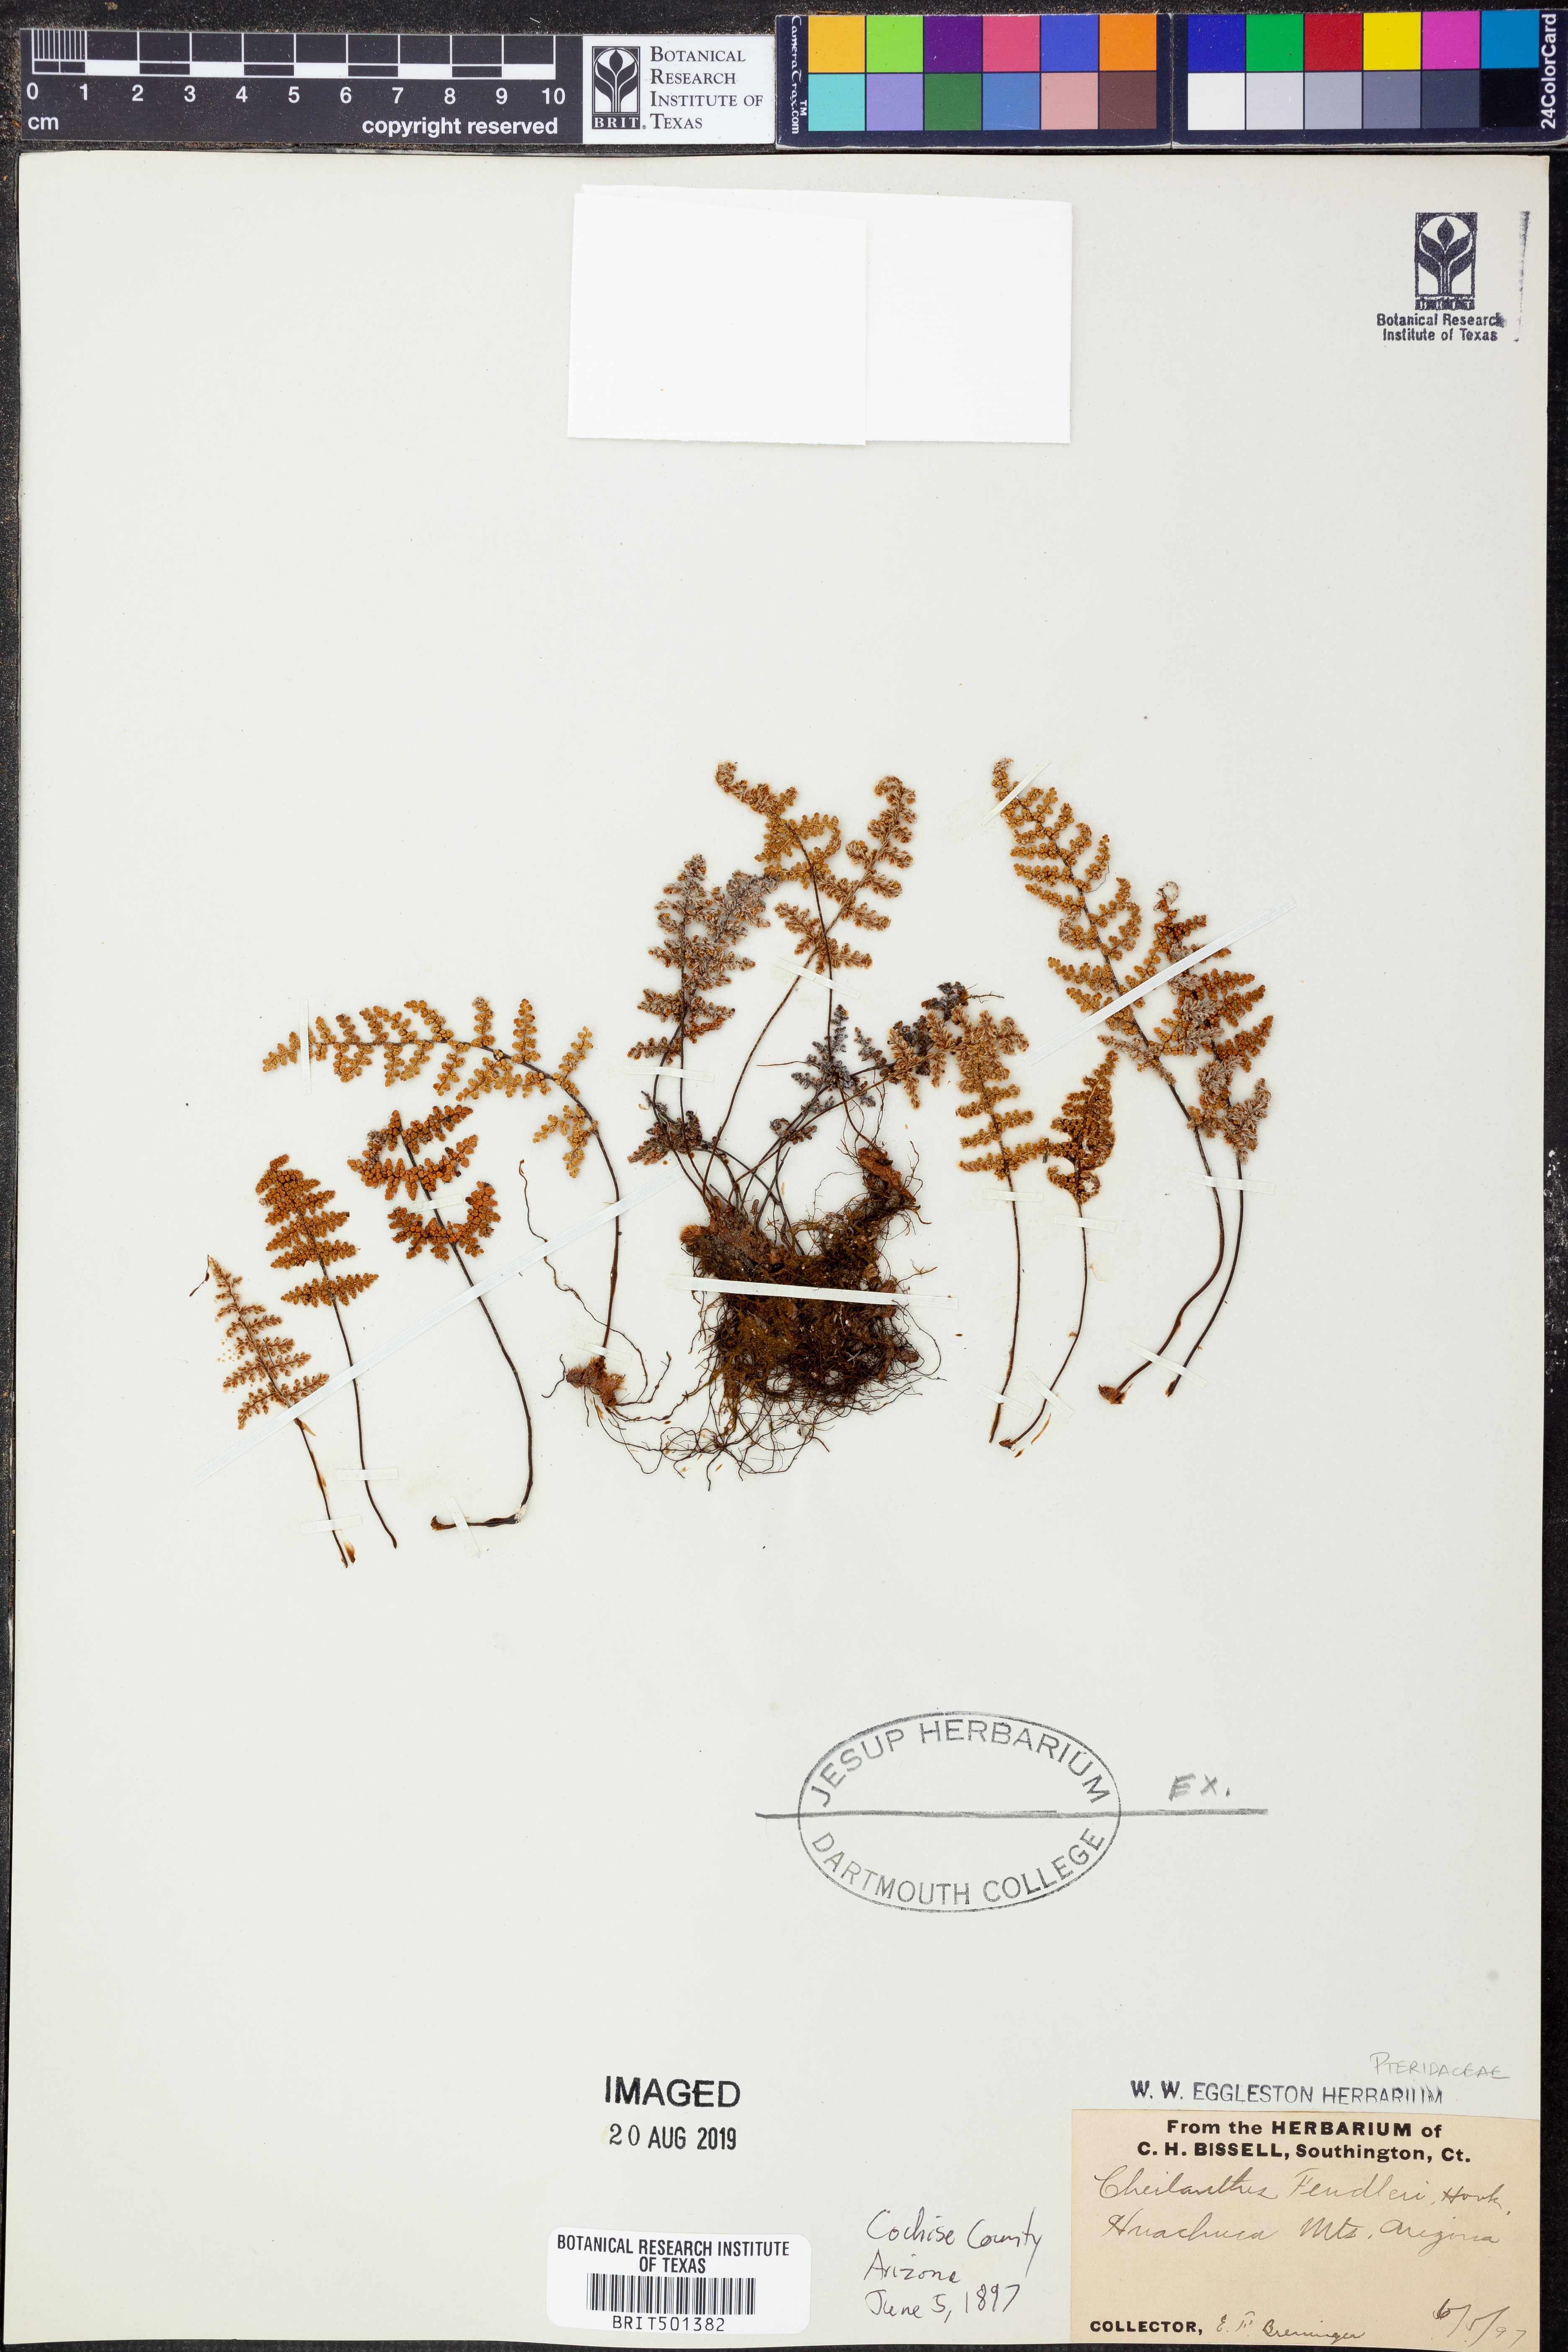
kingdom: Plantae
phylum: Tracheophyta
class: Polypodiopsida
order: Polypodiales
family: Pteridaceae
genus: Myriopteris
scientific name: Myriopteris fendleri
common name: Fendler's lip fern
